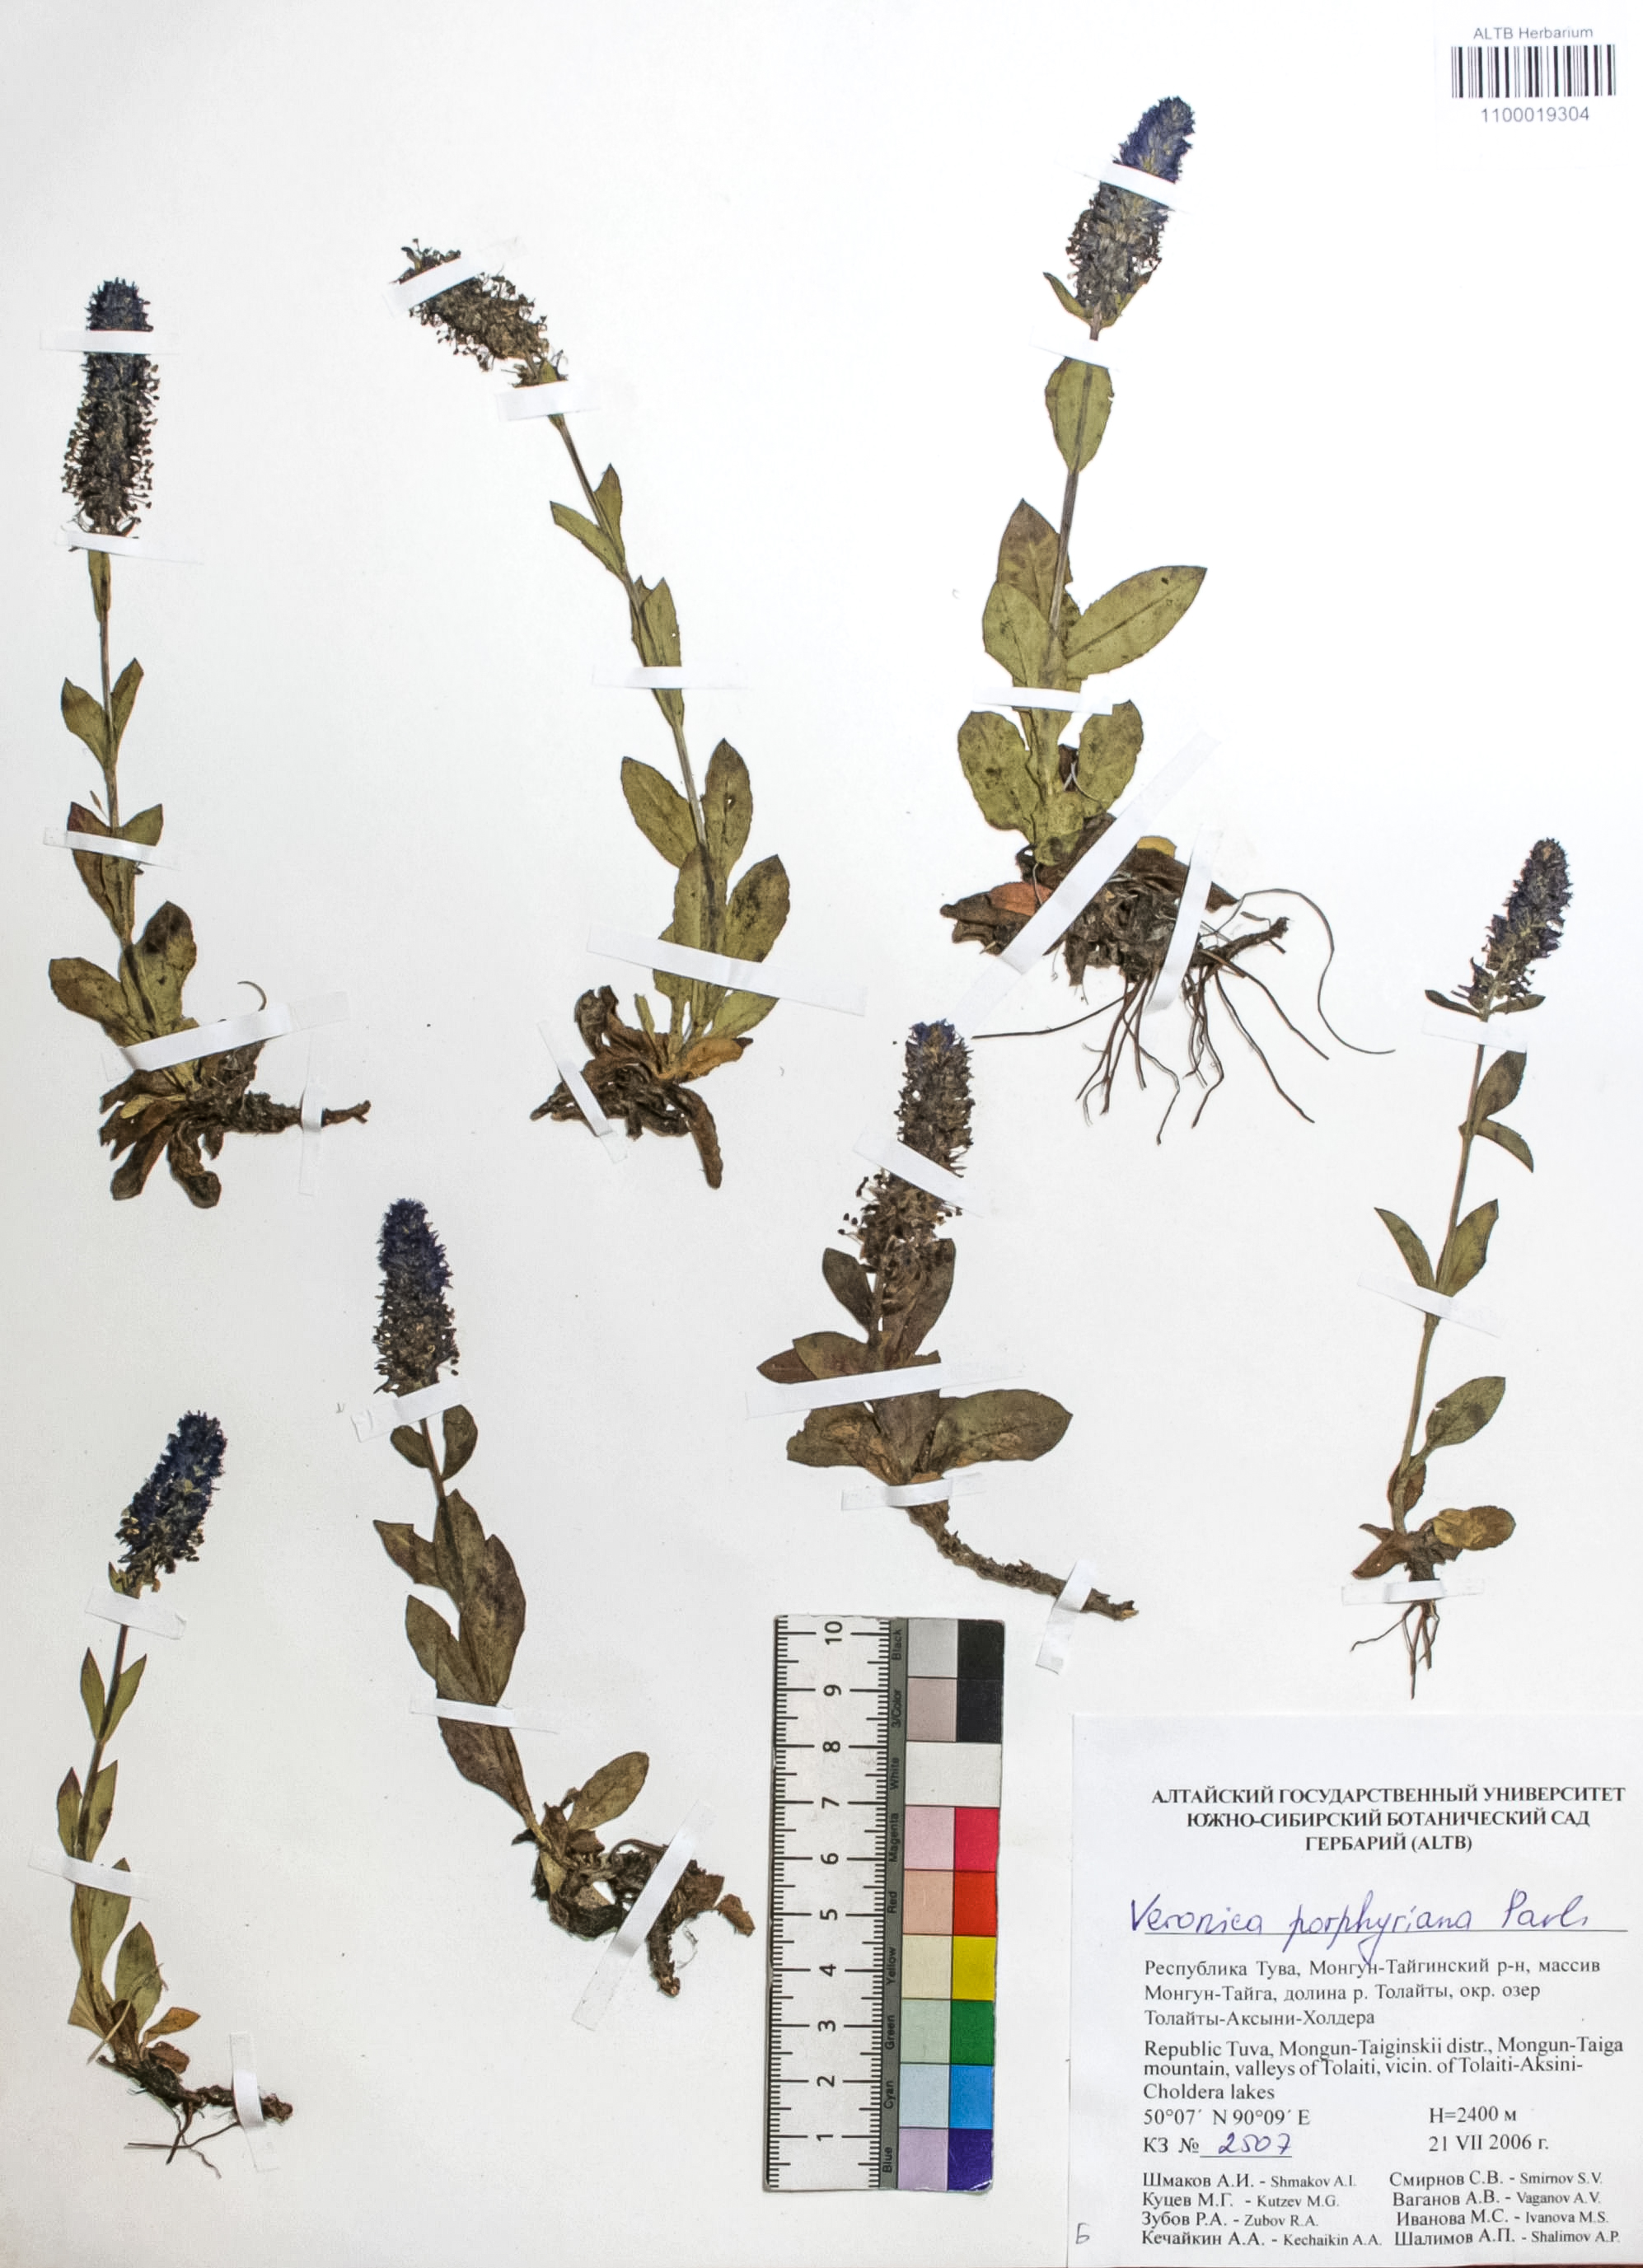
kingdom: Plantae
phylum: Tracheophyta
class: Magnoliopsida
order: Lamiales
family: Plantaginaceae
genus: Veronica
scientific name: Veronica porphyriana
